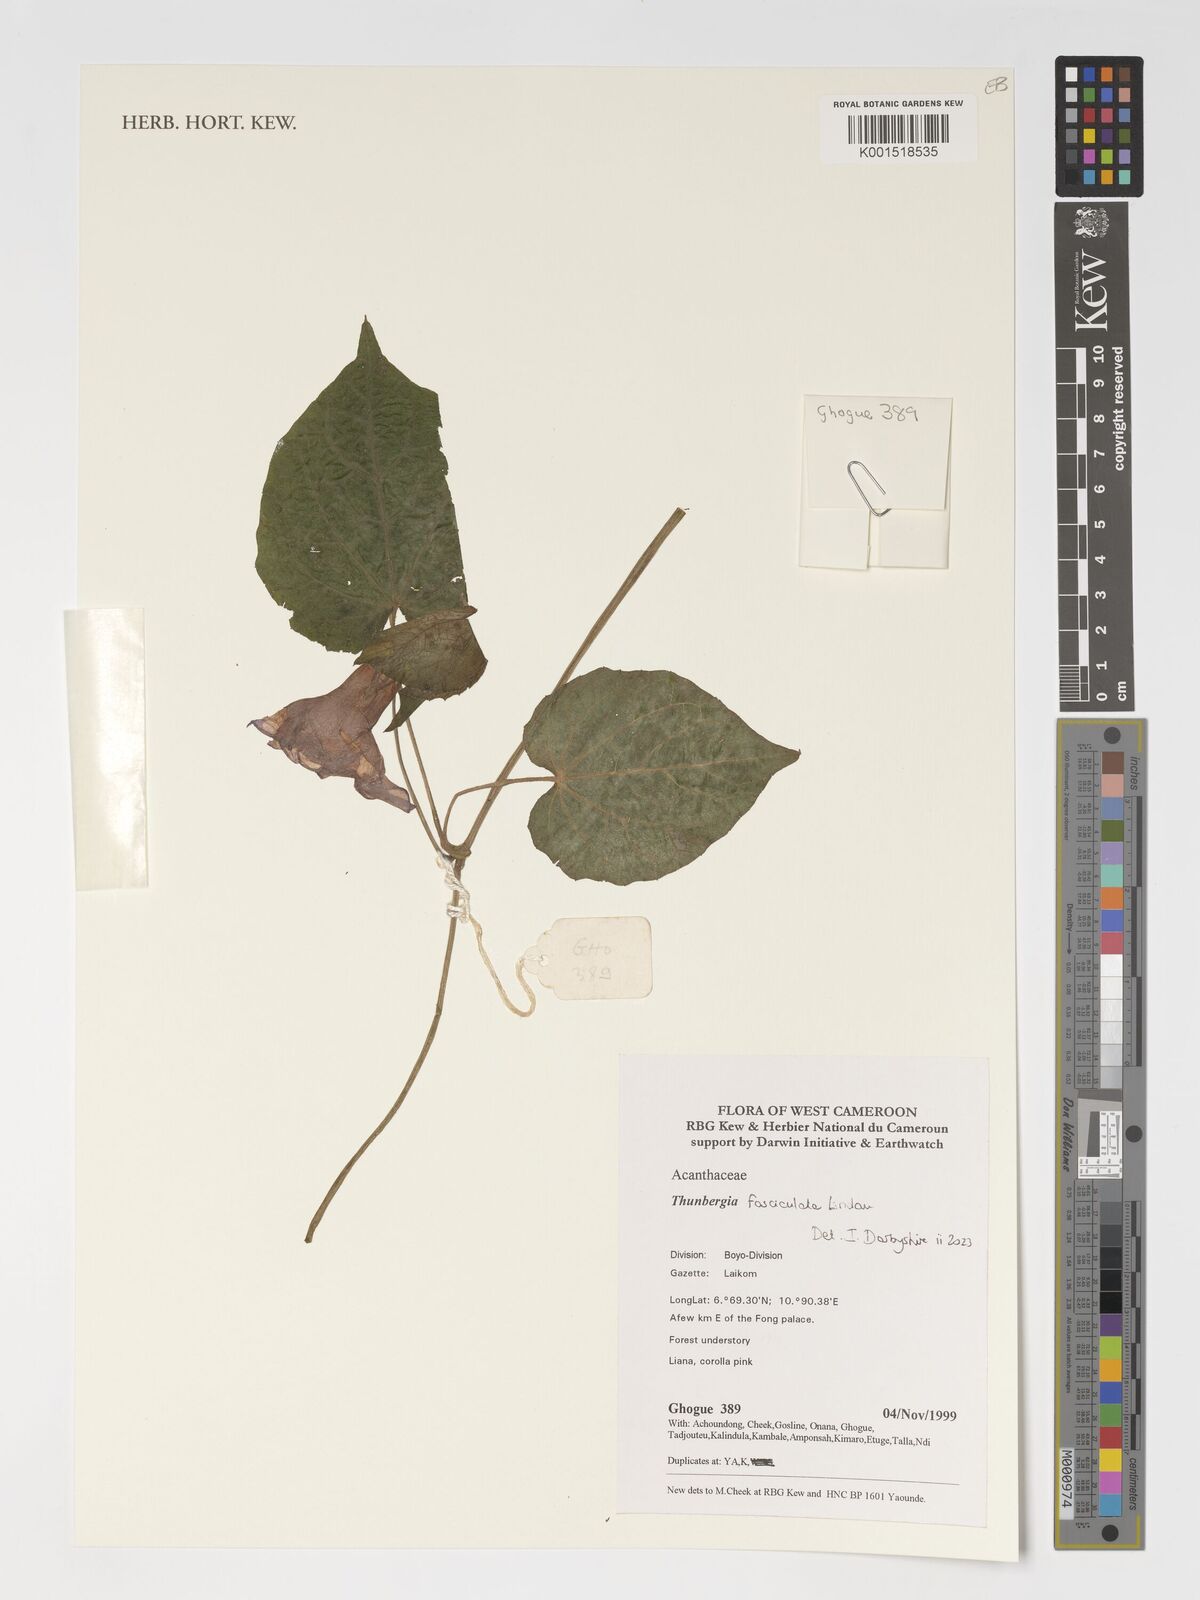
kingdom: Plantae
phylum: Tracheophyta
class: Magnoliopsida
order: Lamiales
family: Acanthaceae
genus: Thunbergia
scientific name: Thunbergia fasciculata
